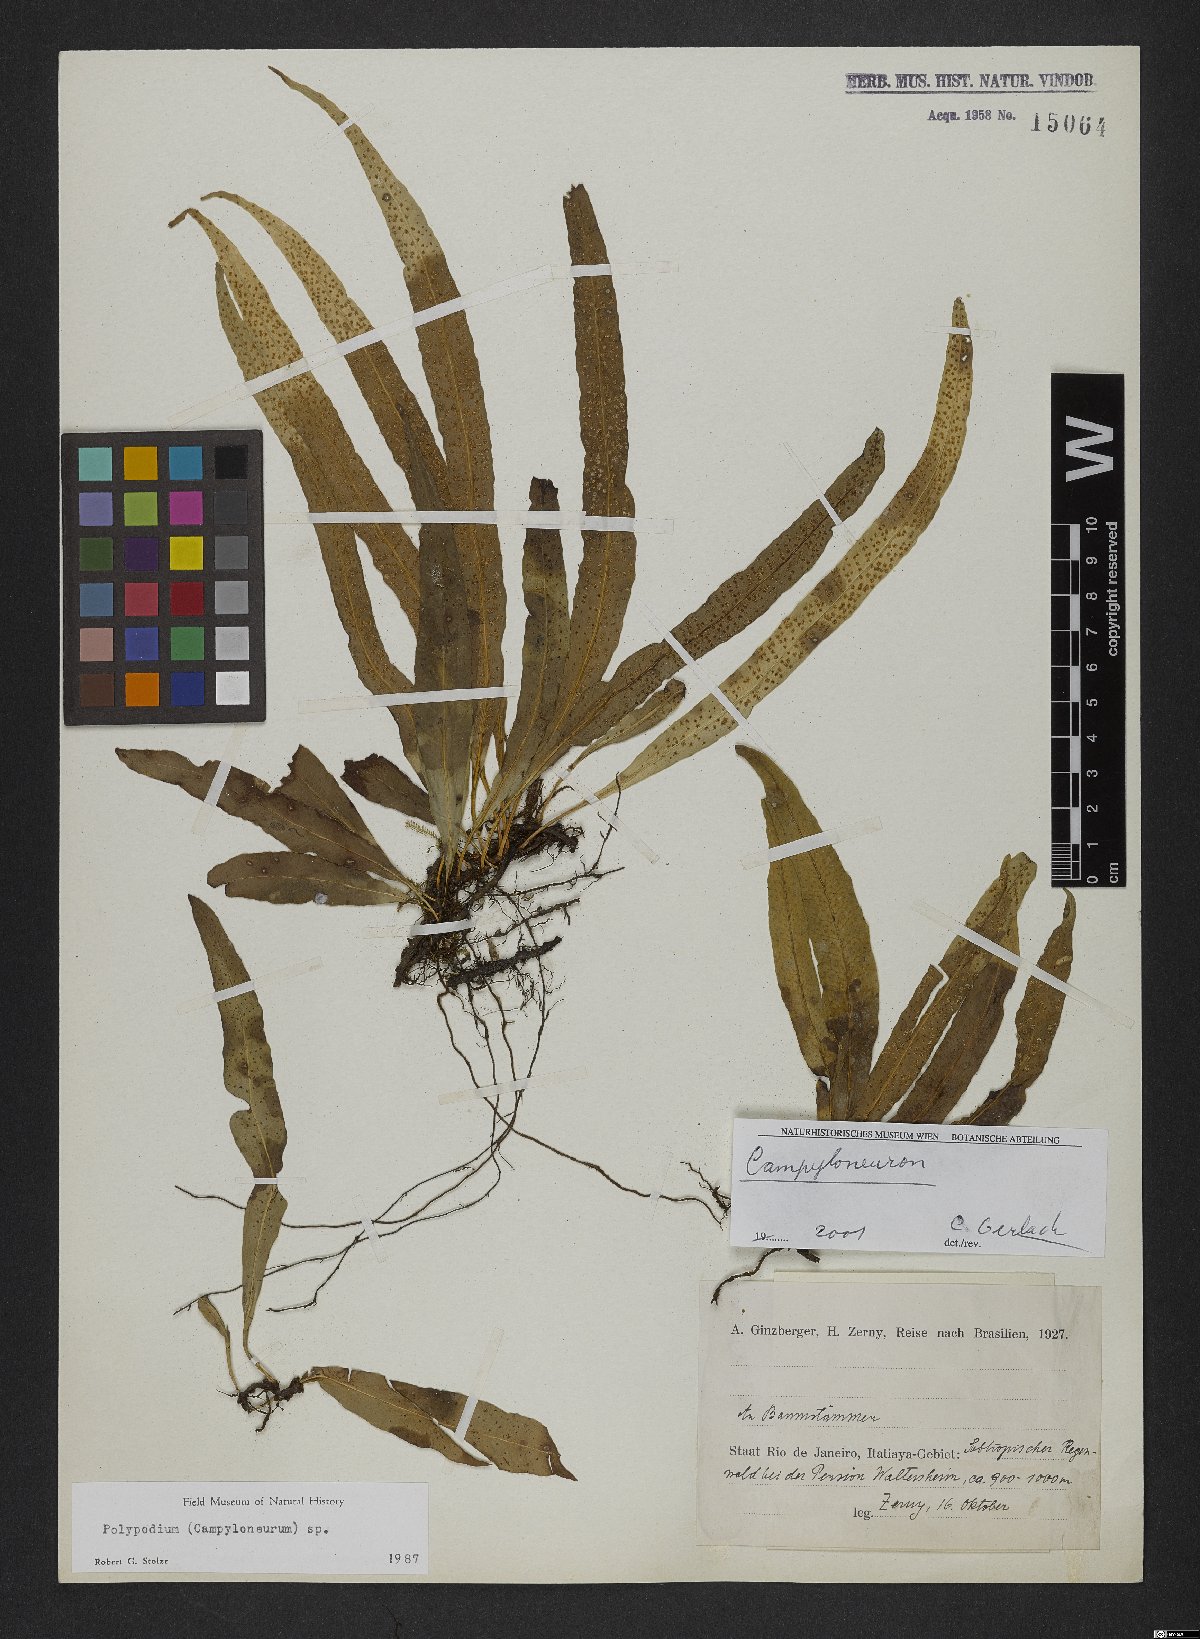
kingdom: Plantae
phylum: Tracheophyta
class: Polypodiopsida
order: Polypodiales
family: Polypodiaceae
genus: Campyloneurum
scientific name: Campyloneurum nitidum
